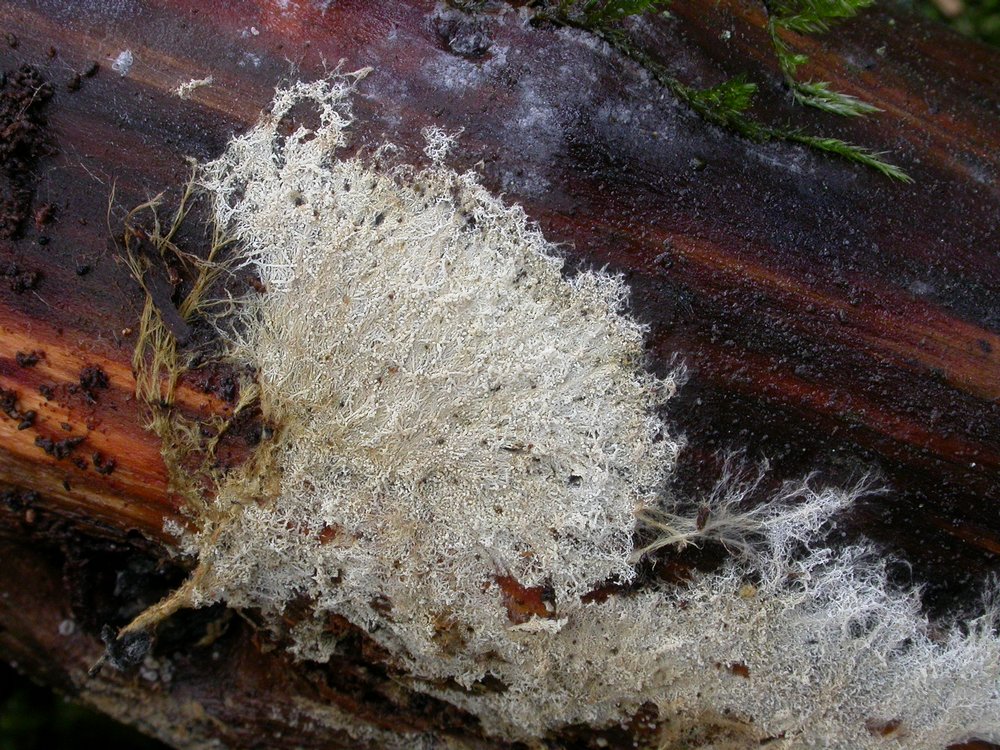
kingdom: Fungi
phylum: Basidiomycota
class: Agaricomycetes
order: Russulales
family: Xenasmataceae
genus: Xenasmatella
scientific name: Xenasmatella vaga
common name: svovl-strenghinde
